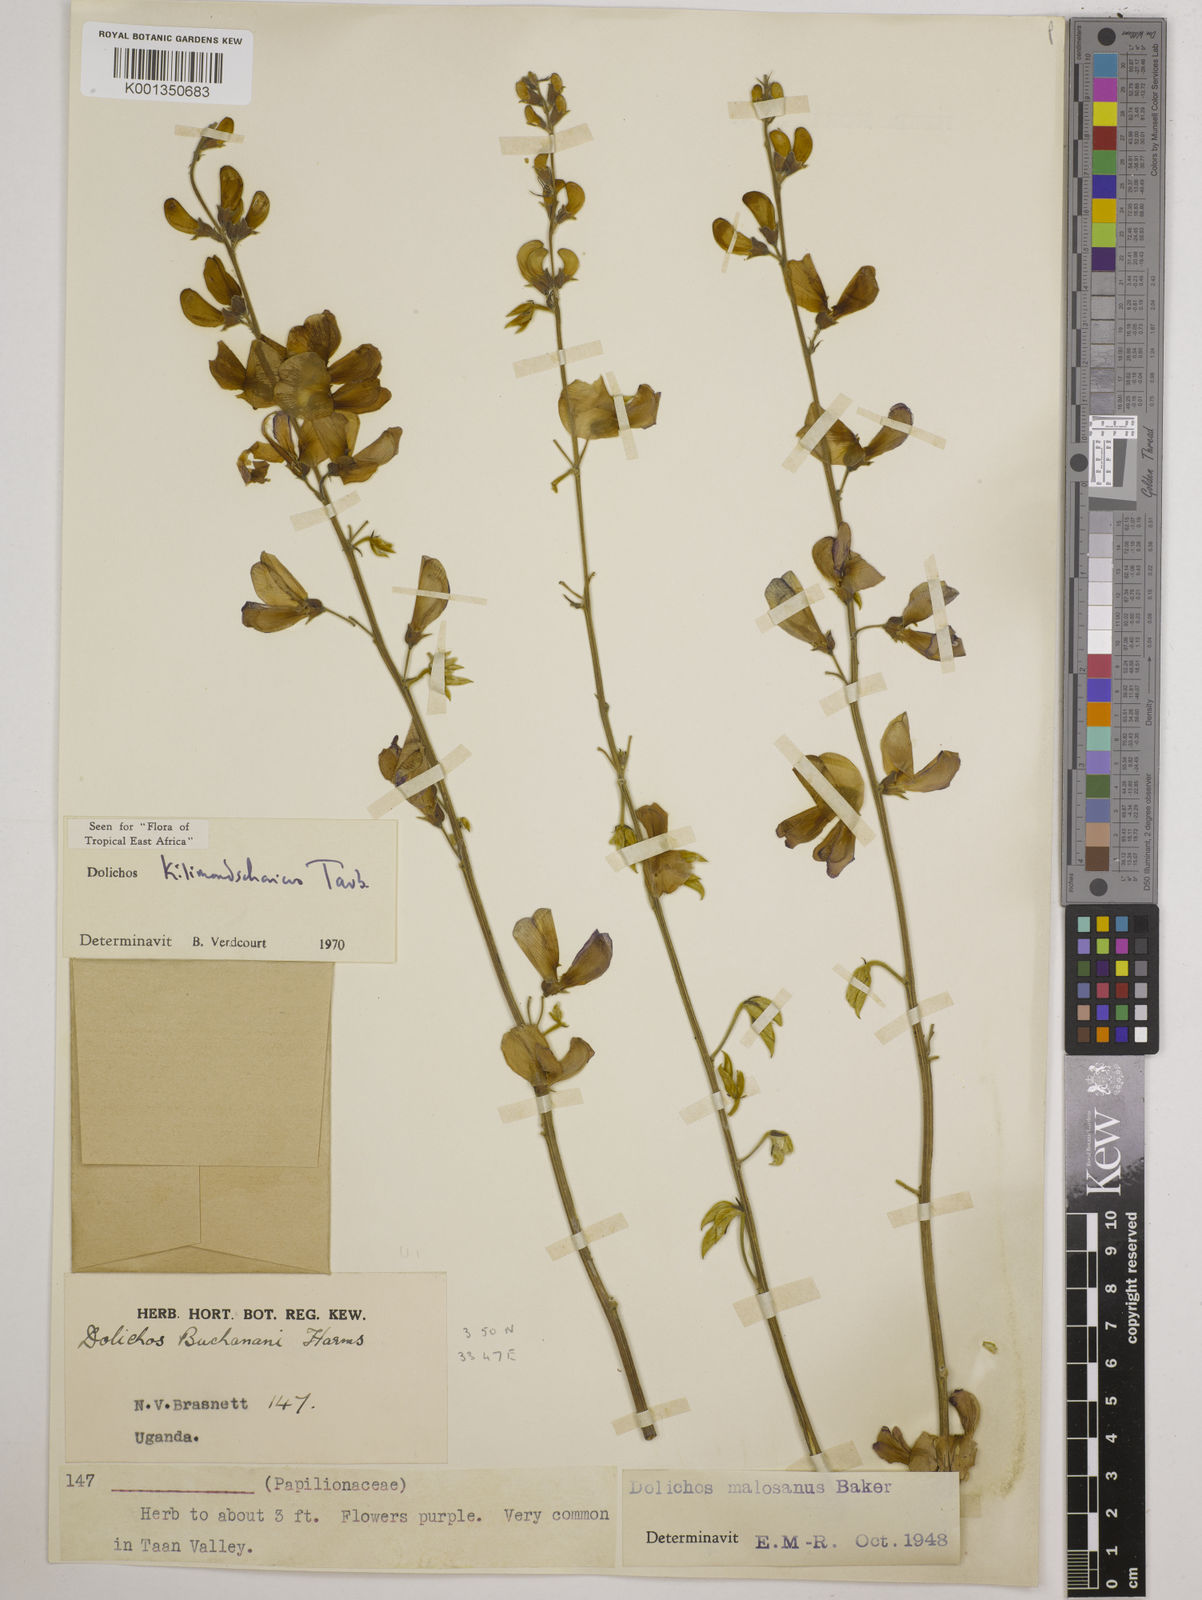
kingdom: Plantae
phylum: Tracheophyta
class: Magnoliopsida
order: Fabales
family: Fabaceae
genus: Dolichos
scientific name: Dolichos kilimandscharicus
